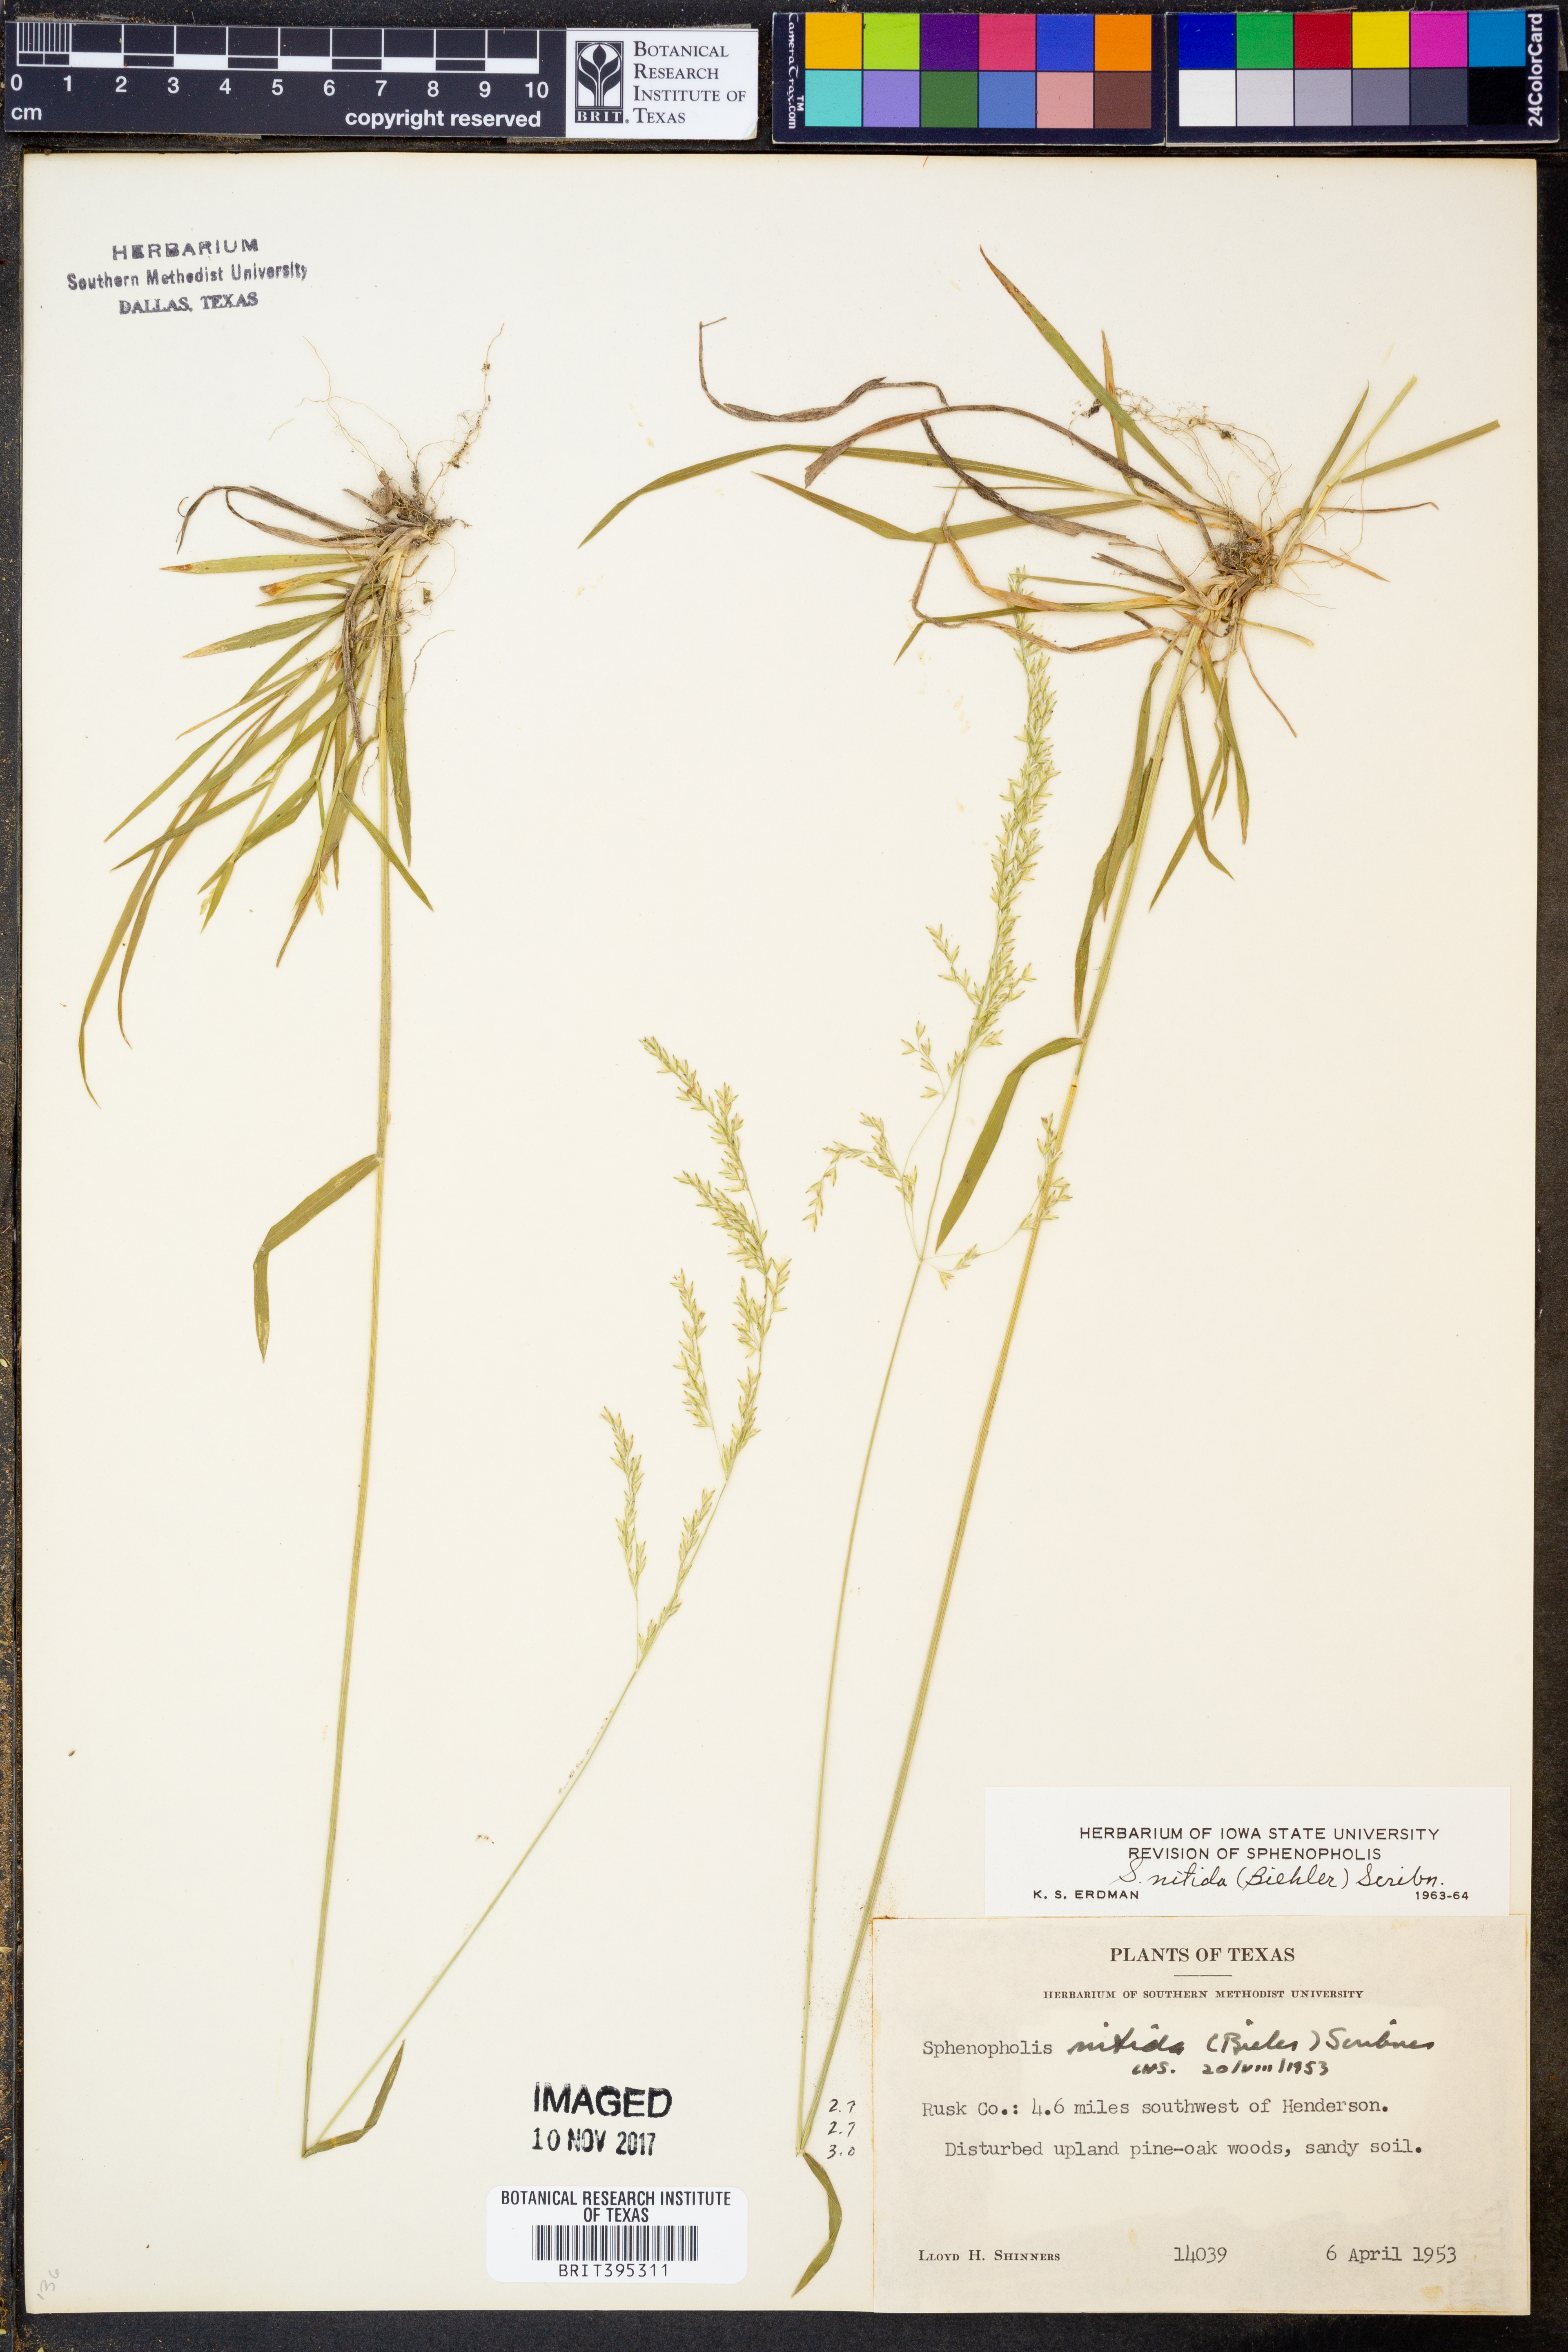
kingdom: Plantae
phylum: Tracheophyta
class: Liliopsida
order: Poales
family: Poaceae
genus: Sphenopholis
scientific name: Sphenopholis nitida
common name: Shiny wedgegrass
